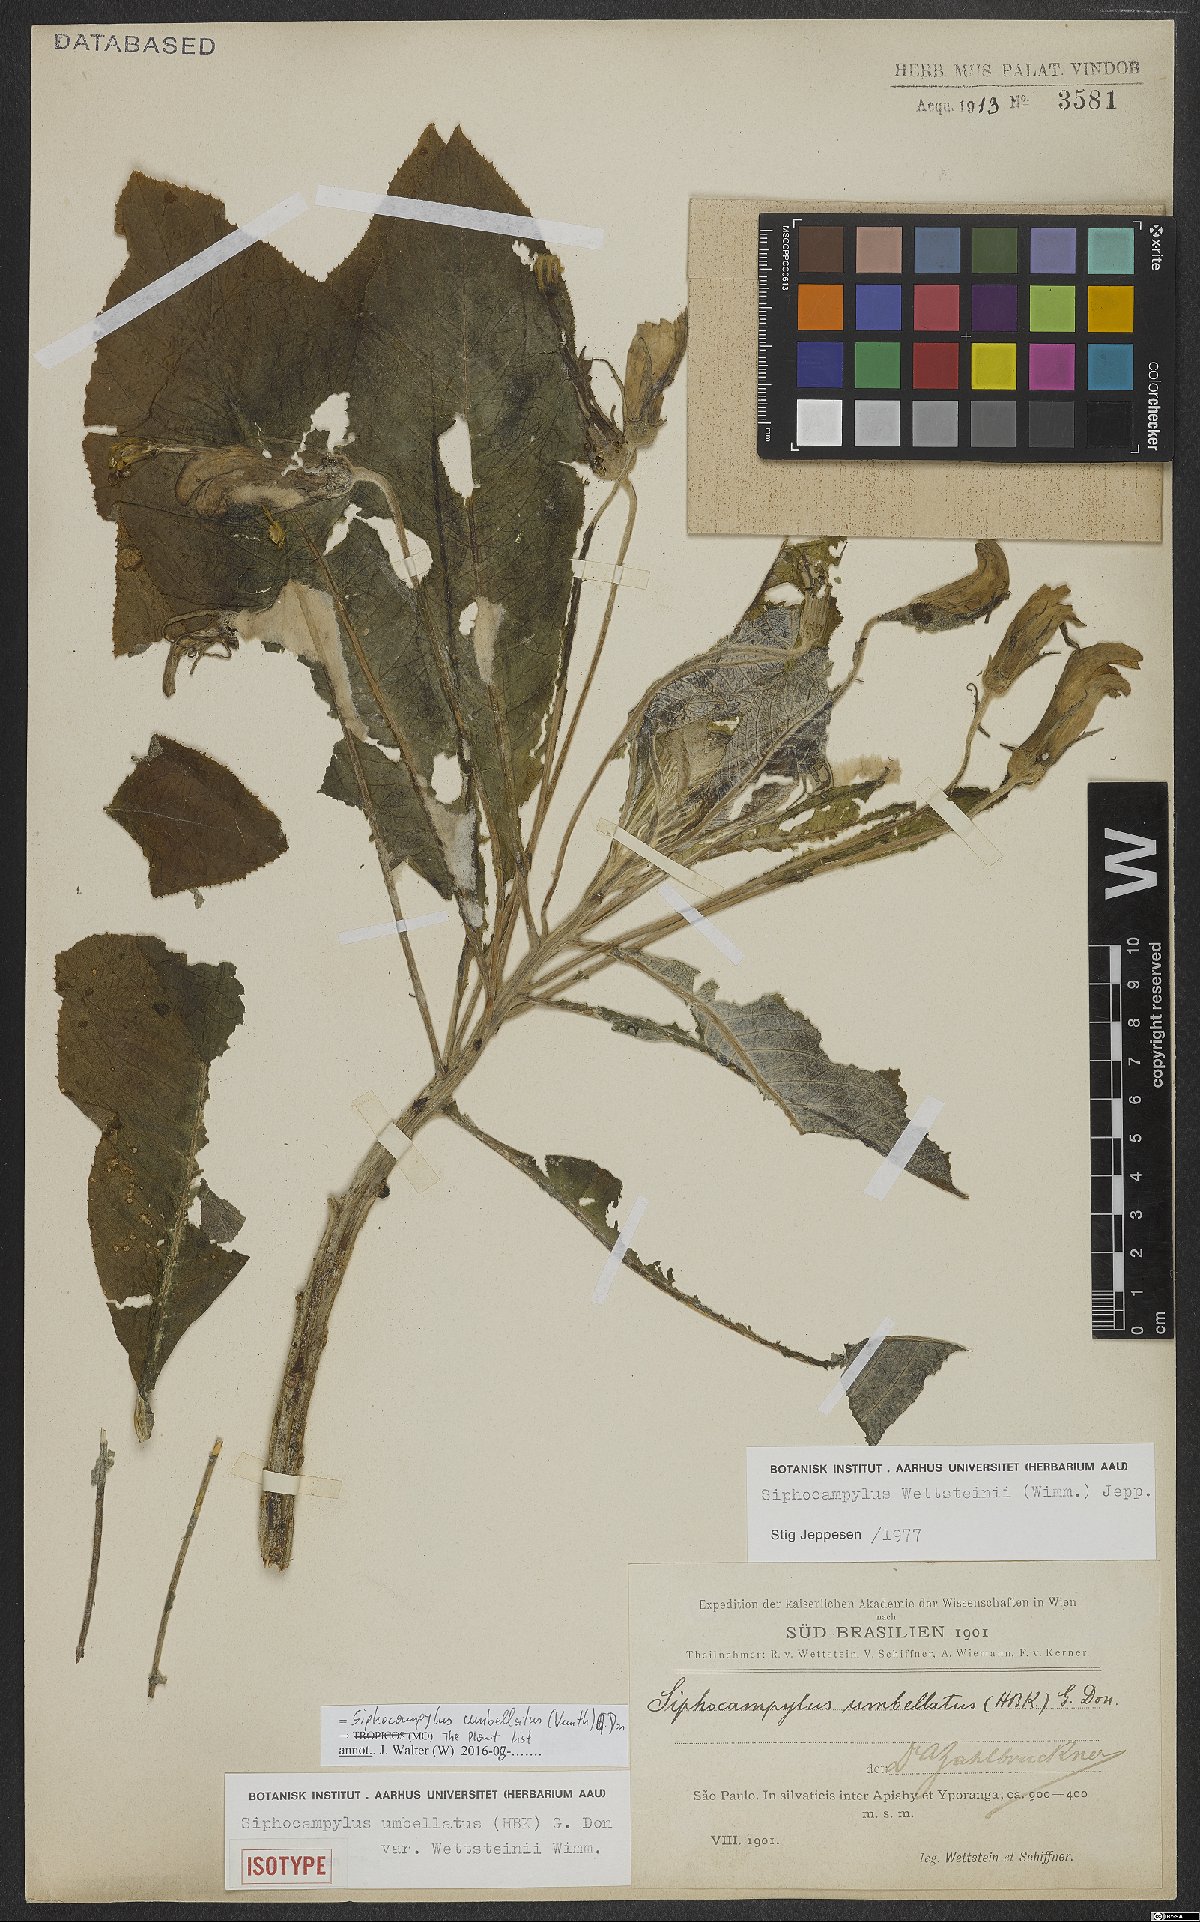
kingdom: Plantae
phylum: Tracheophyta
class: Magnoliopsida
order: Asterales
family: Campanulaceae
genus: Siphocampylus
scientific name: Siphocampylus umbellatus
